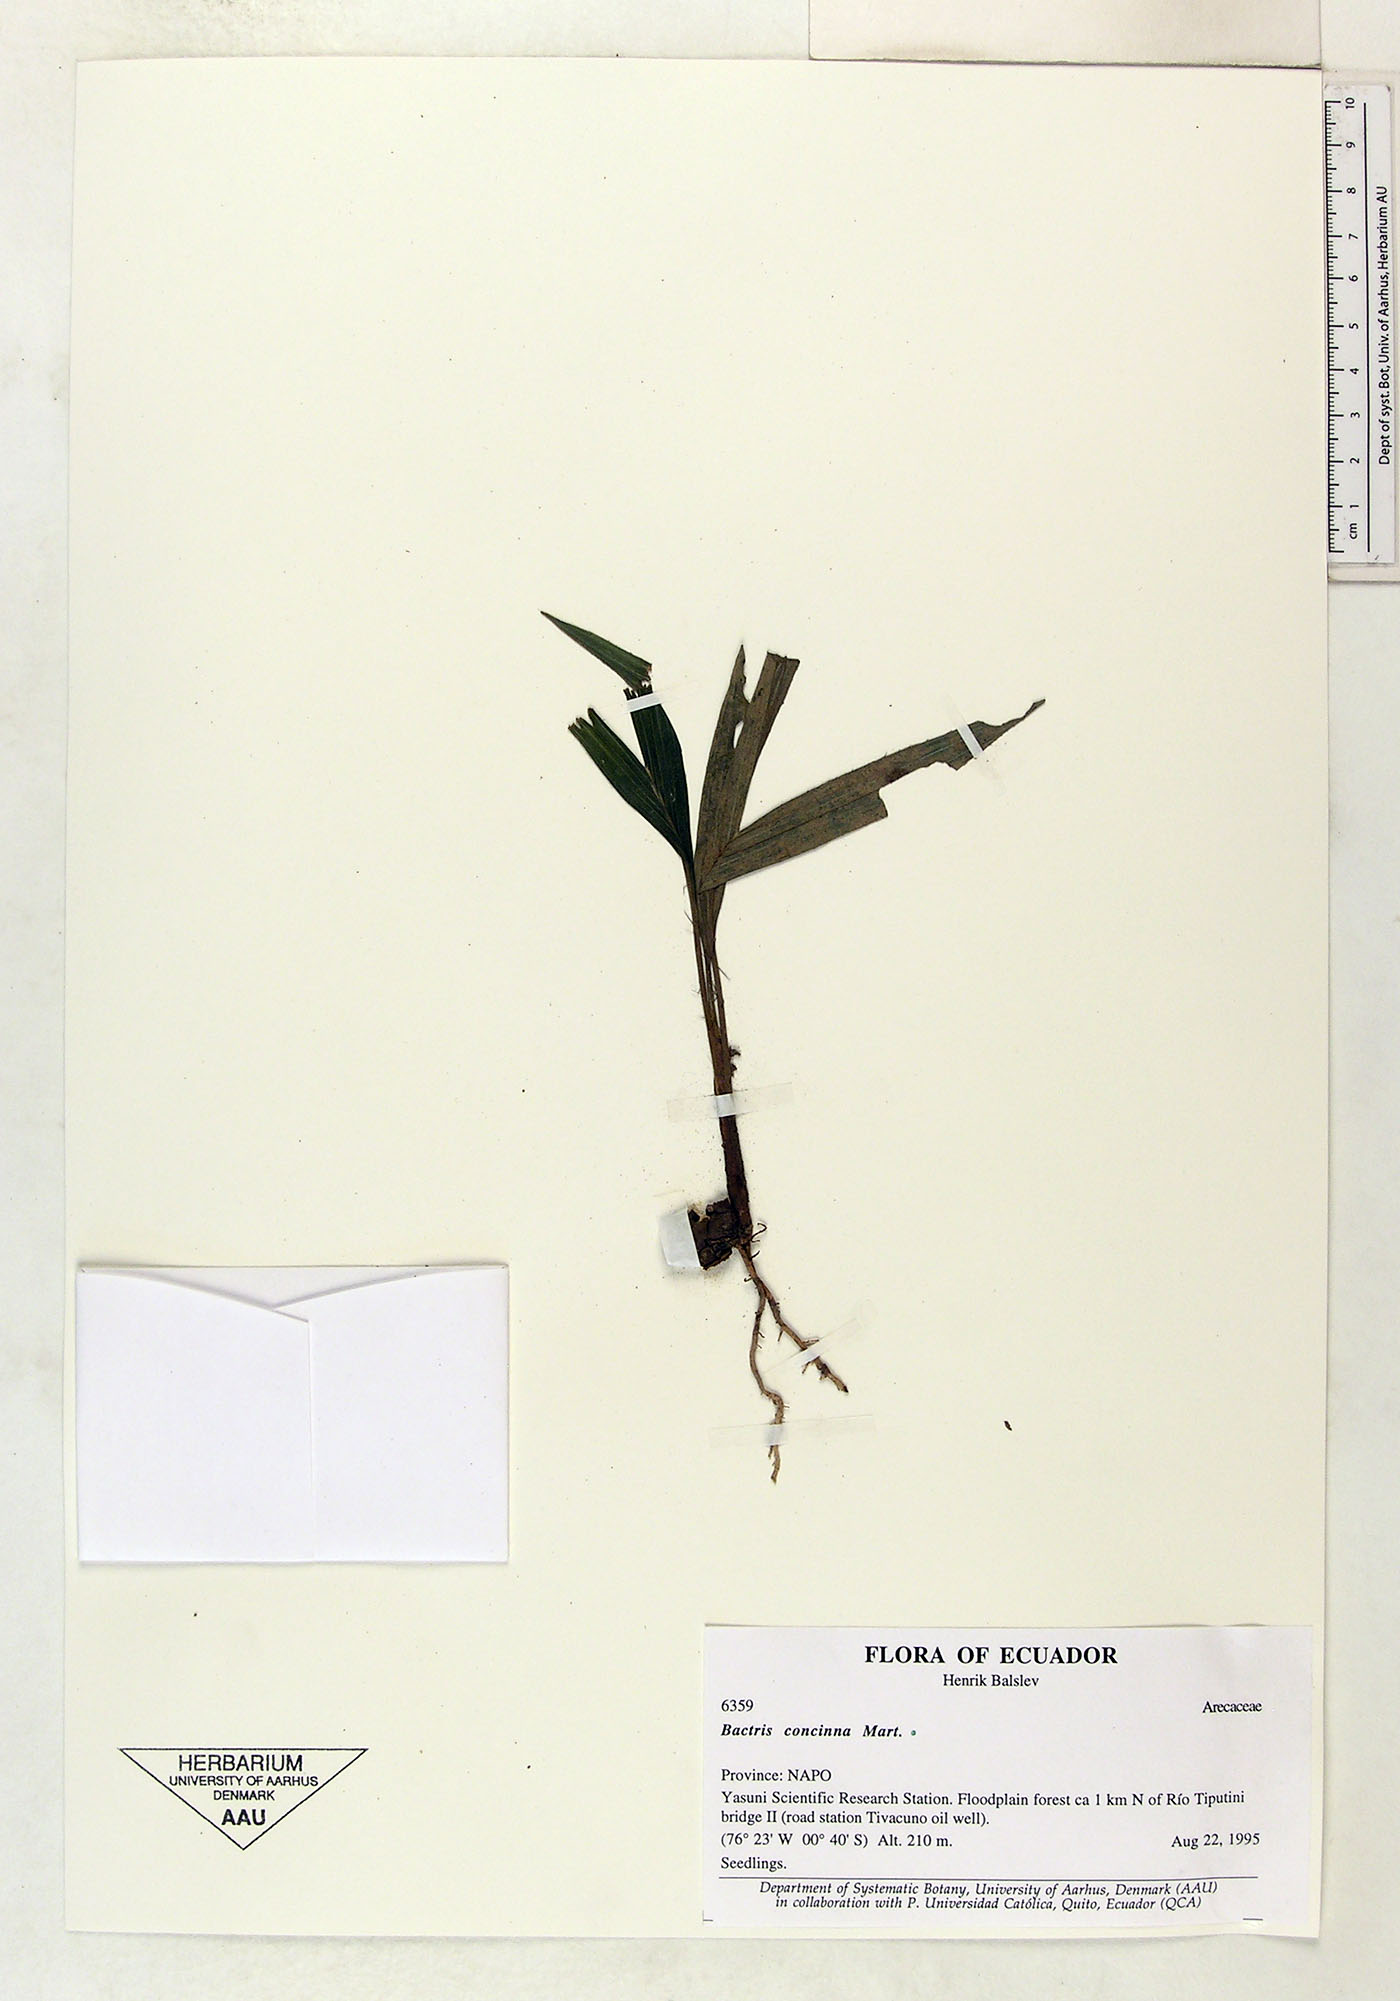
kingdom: Plantae
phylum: Tracheophyta
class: Liliopsida
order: Arecales
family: Arecaceae
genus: Bactris
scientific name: Bactris concinna
